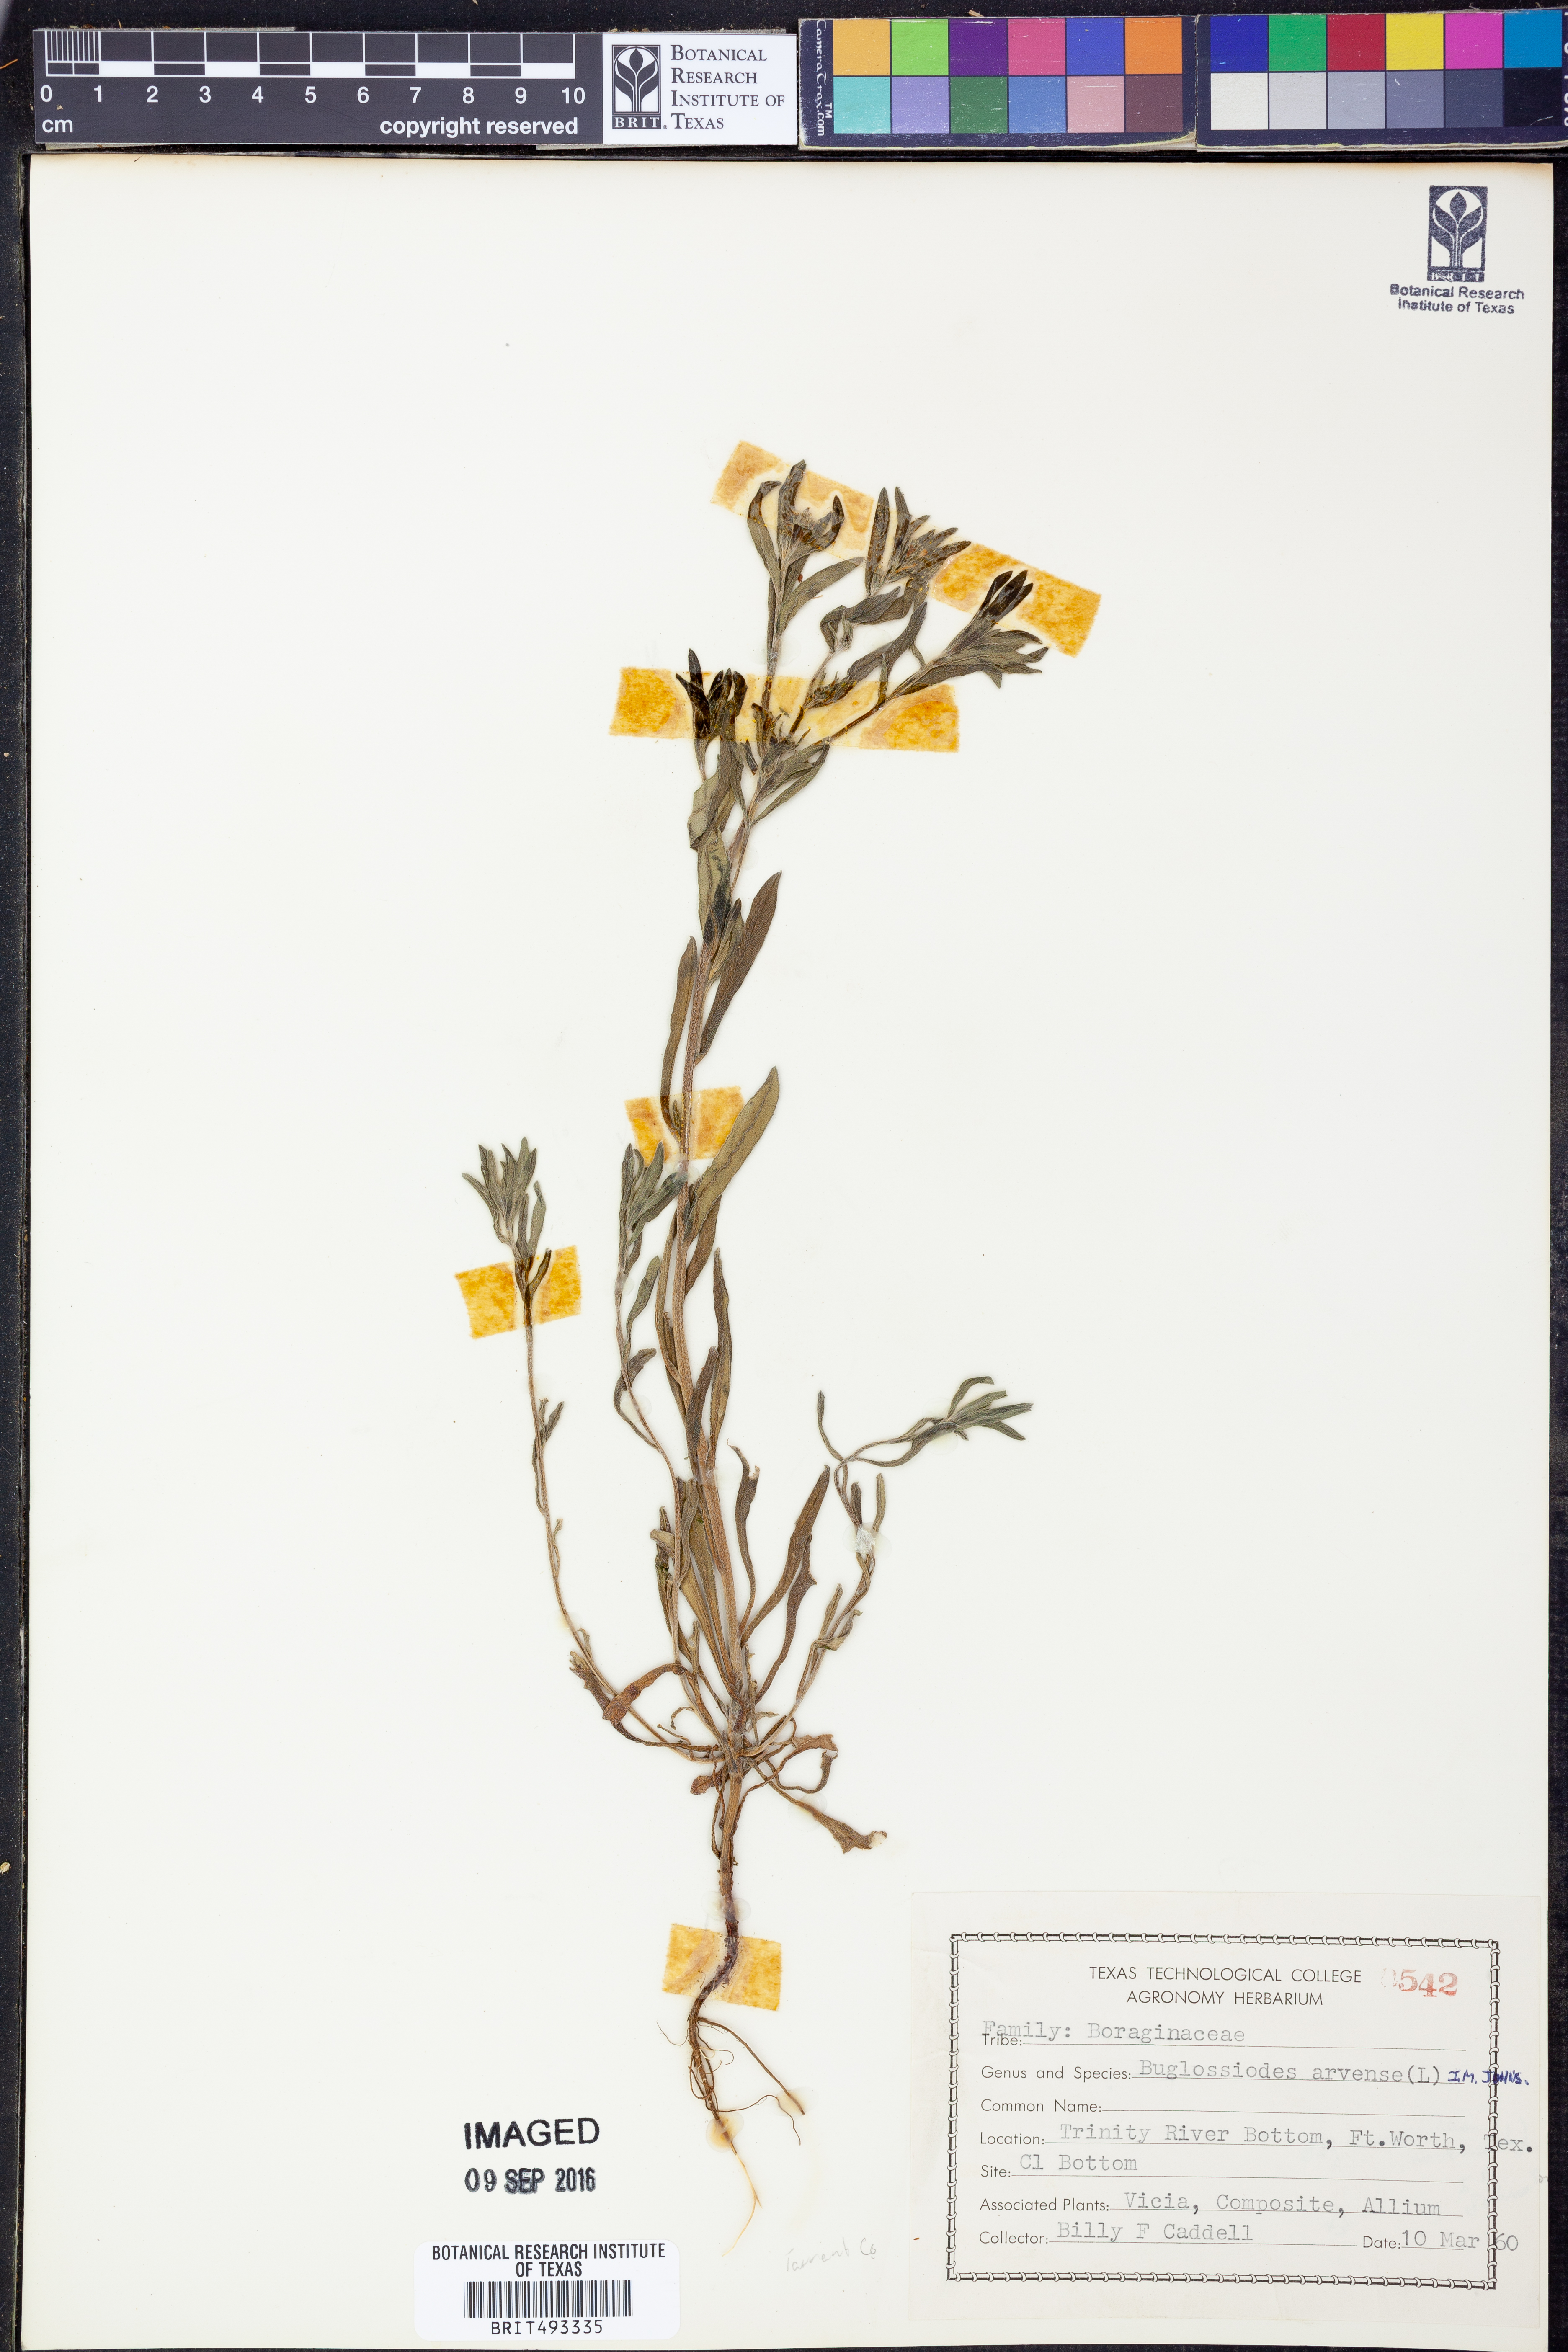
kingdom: Plantae
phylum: Tracheophyta
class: Magnoliopsida
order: Boraginales
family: Boraginaceae
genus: Buglossoides
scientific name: Buglossoides arvensis
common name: Corn gromwell
